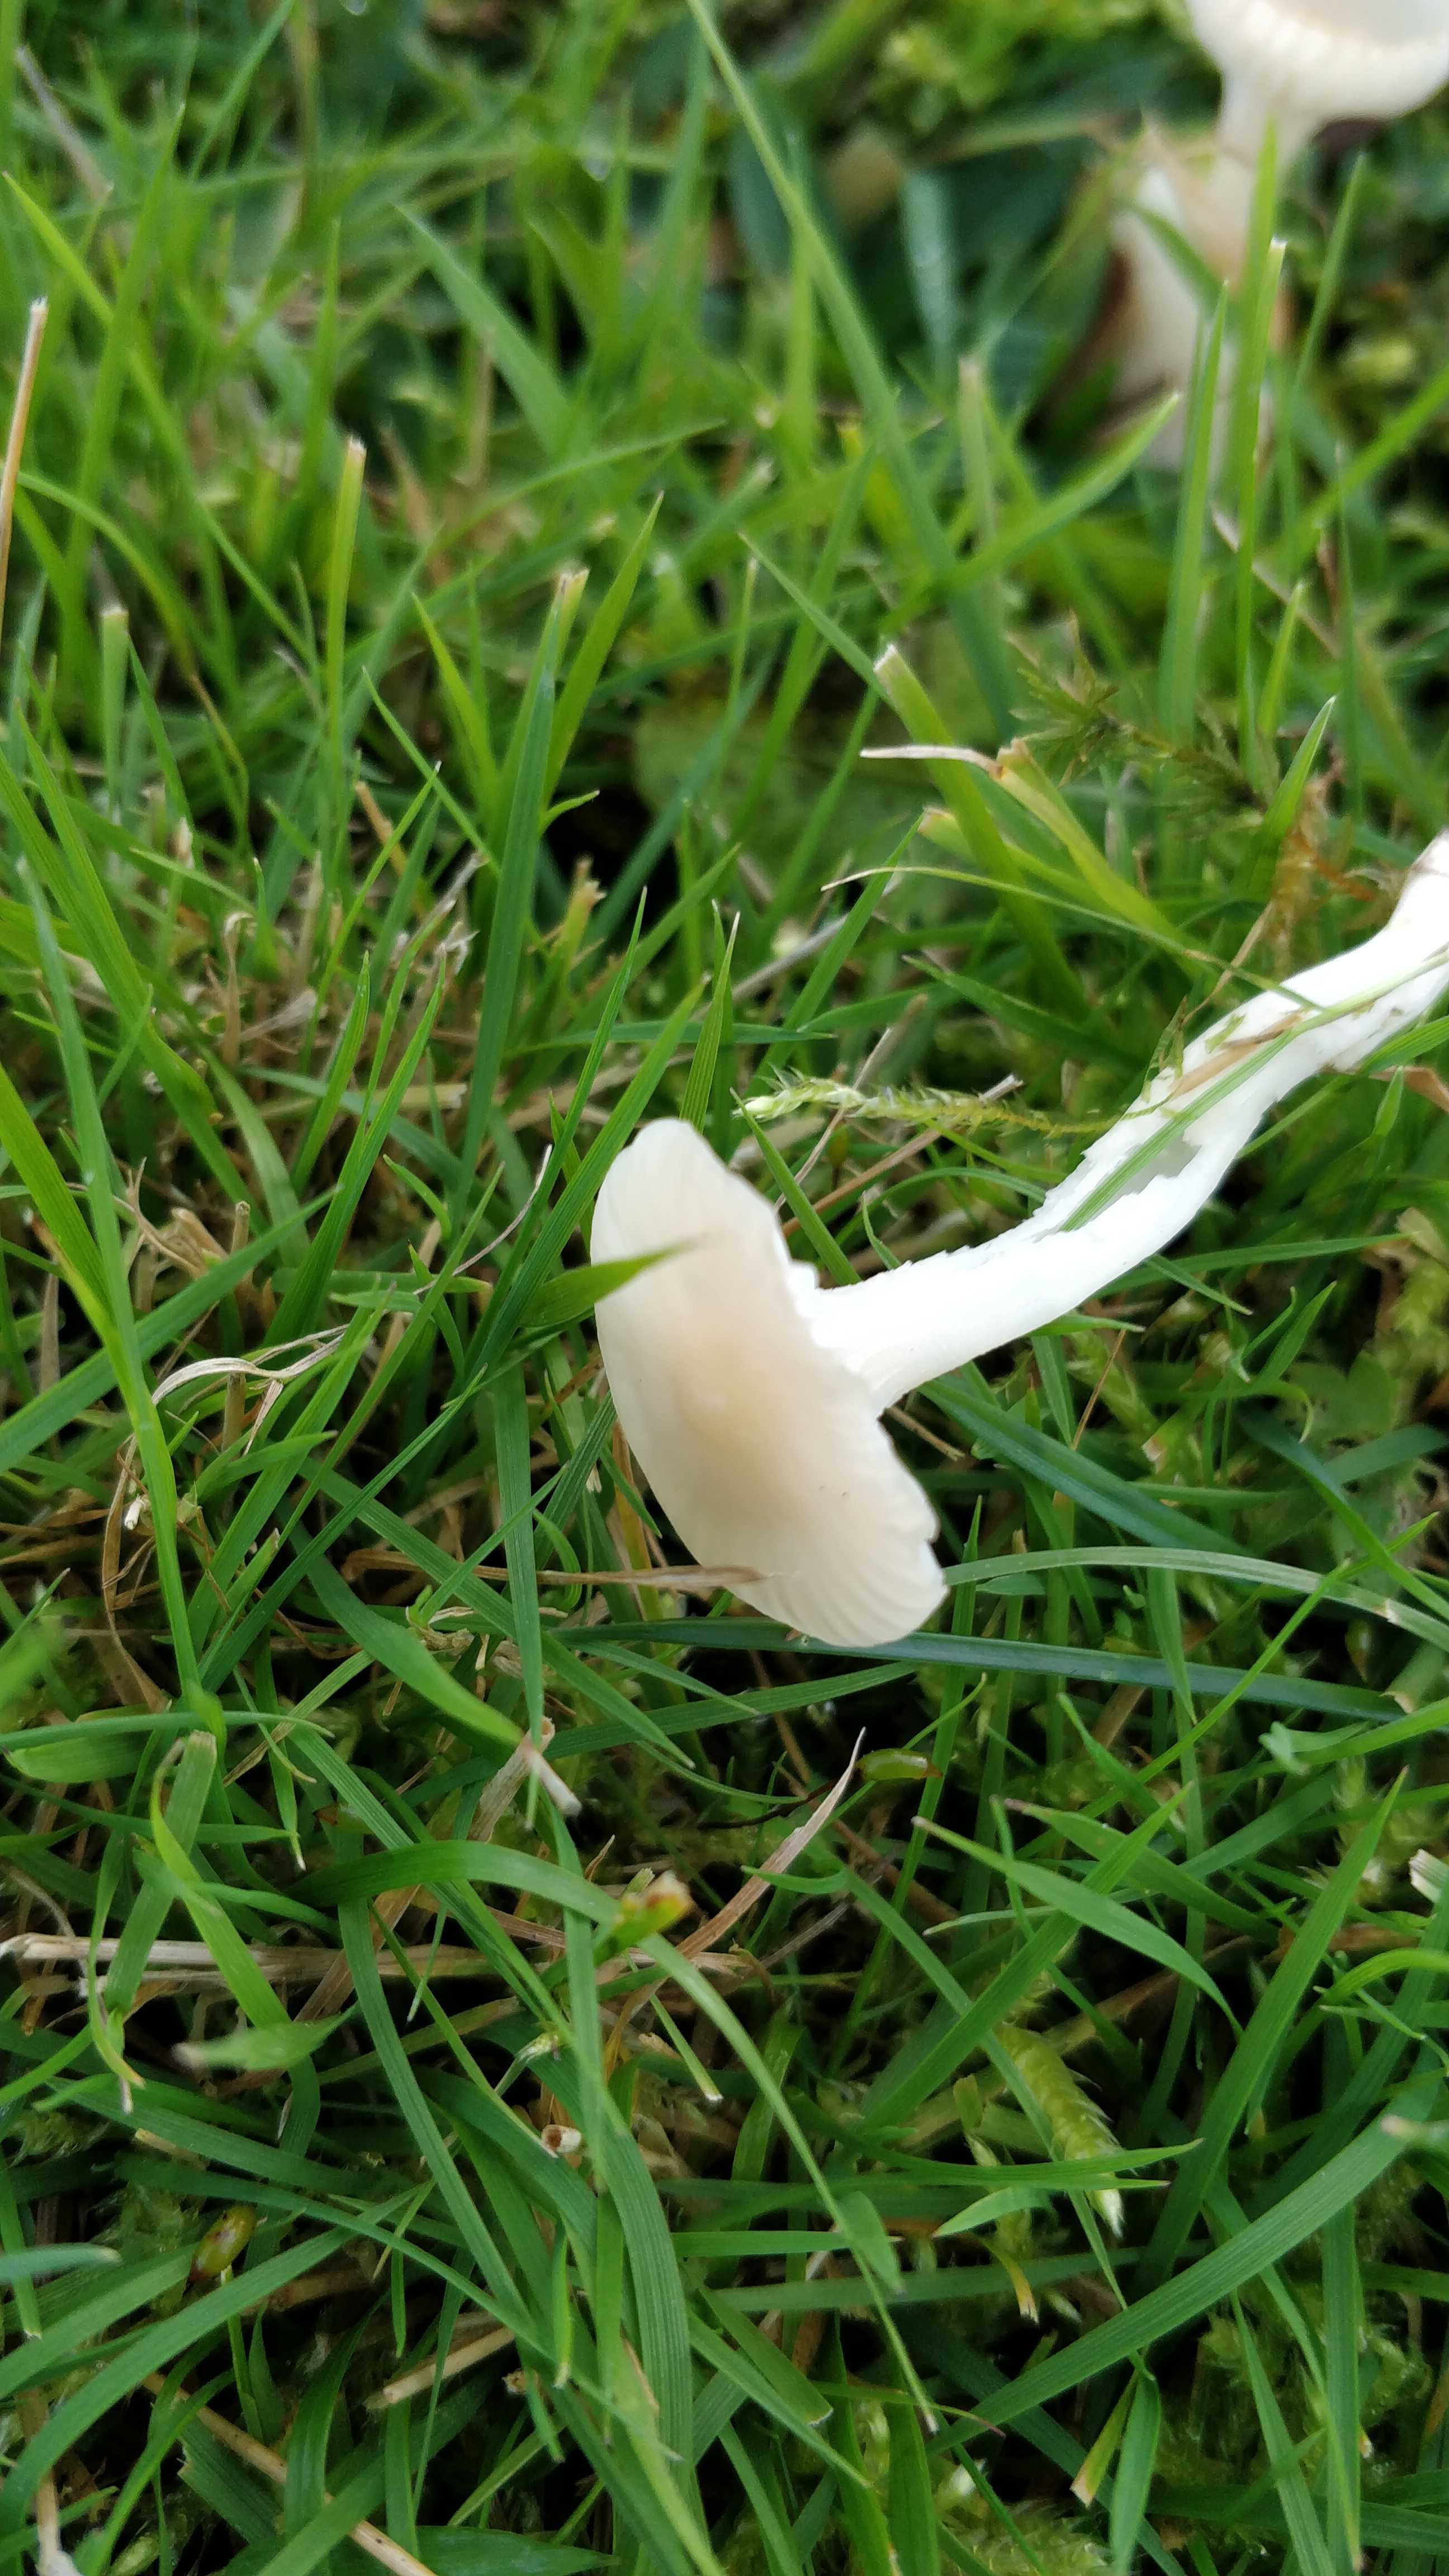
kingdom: Fungi
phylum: Basidiomycota
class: Agaricomycetes
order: Agaricales
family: Hygrophoraceae
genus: Cuphophyllus
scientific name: Cuphophyllus virgineus
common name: snehvid vokshat
